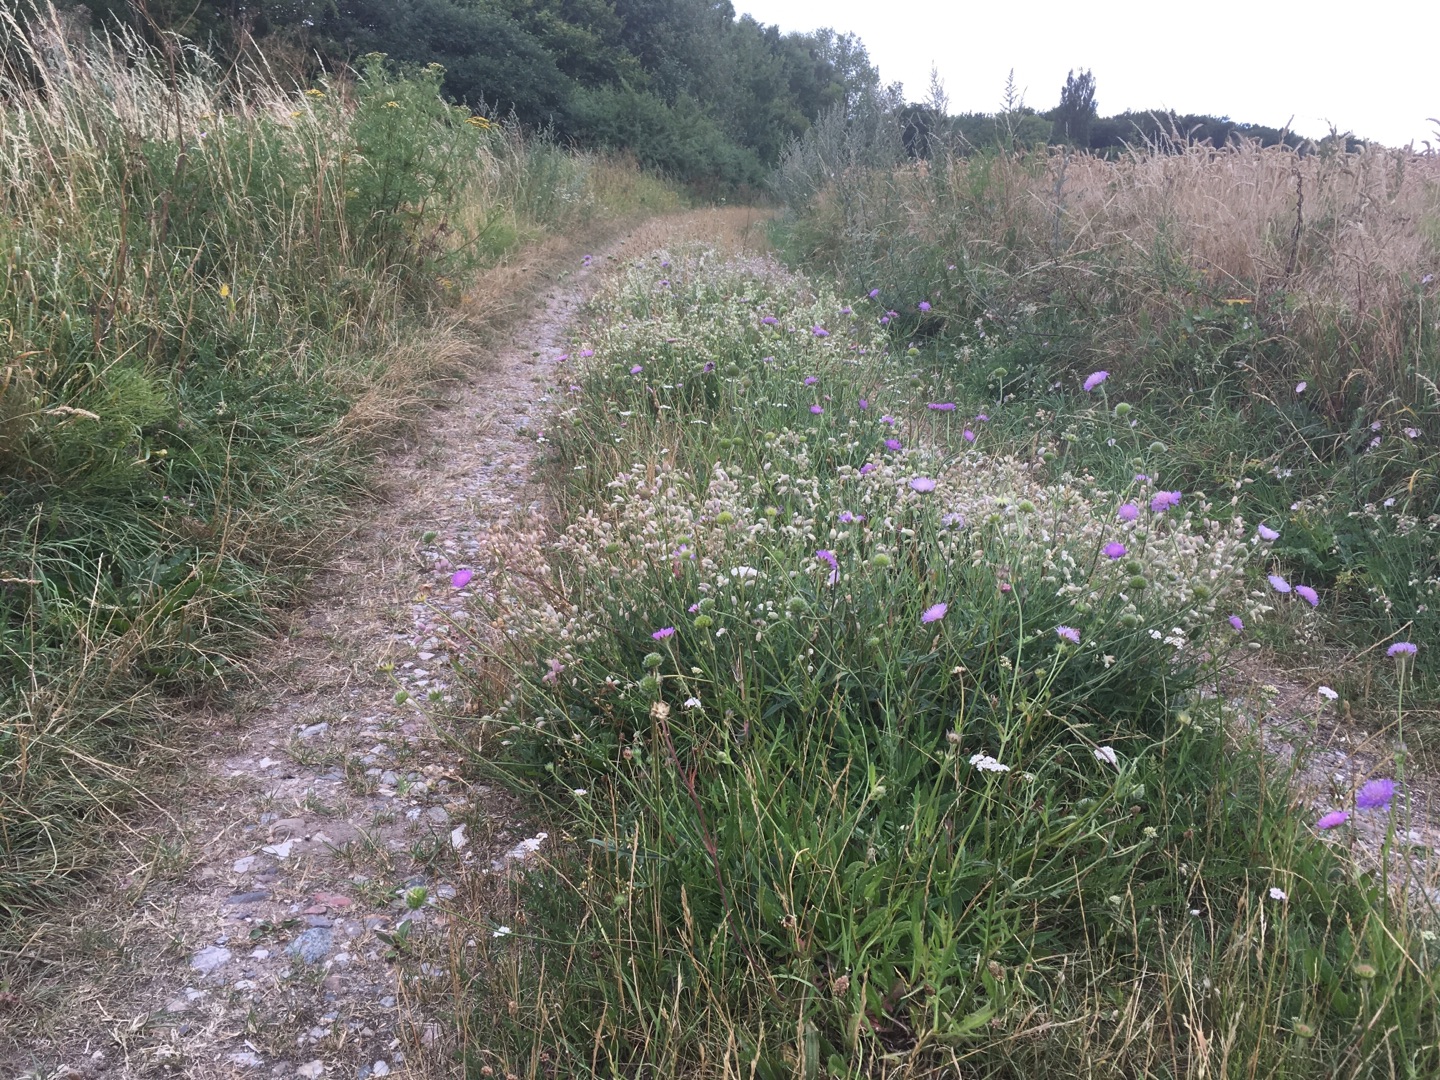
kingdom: Plantae
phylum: Tracheophyta
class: Magnoliopsida
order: Dipsacales
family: Caprifoliaceae
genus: Knautia
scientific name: Knautia arvensis
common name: Blåhat
